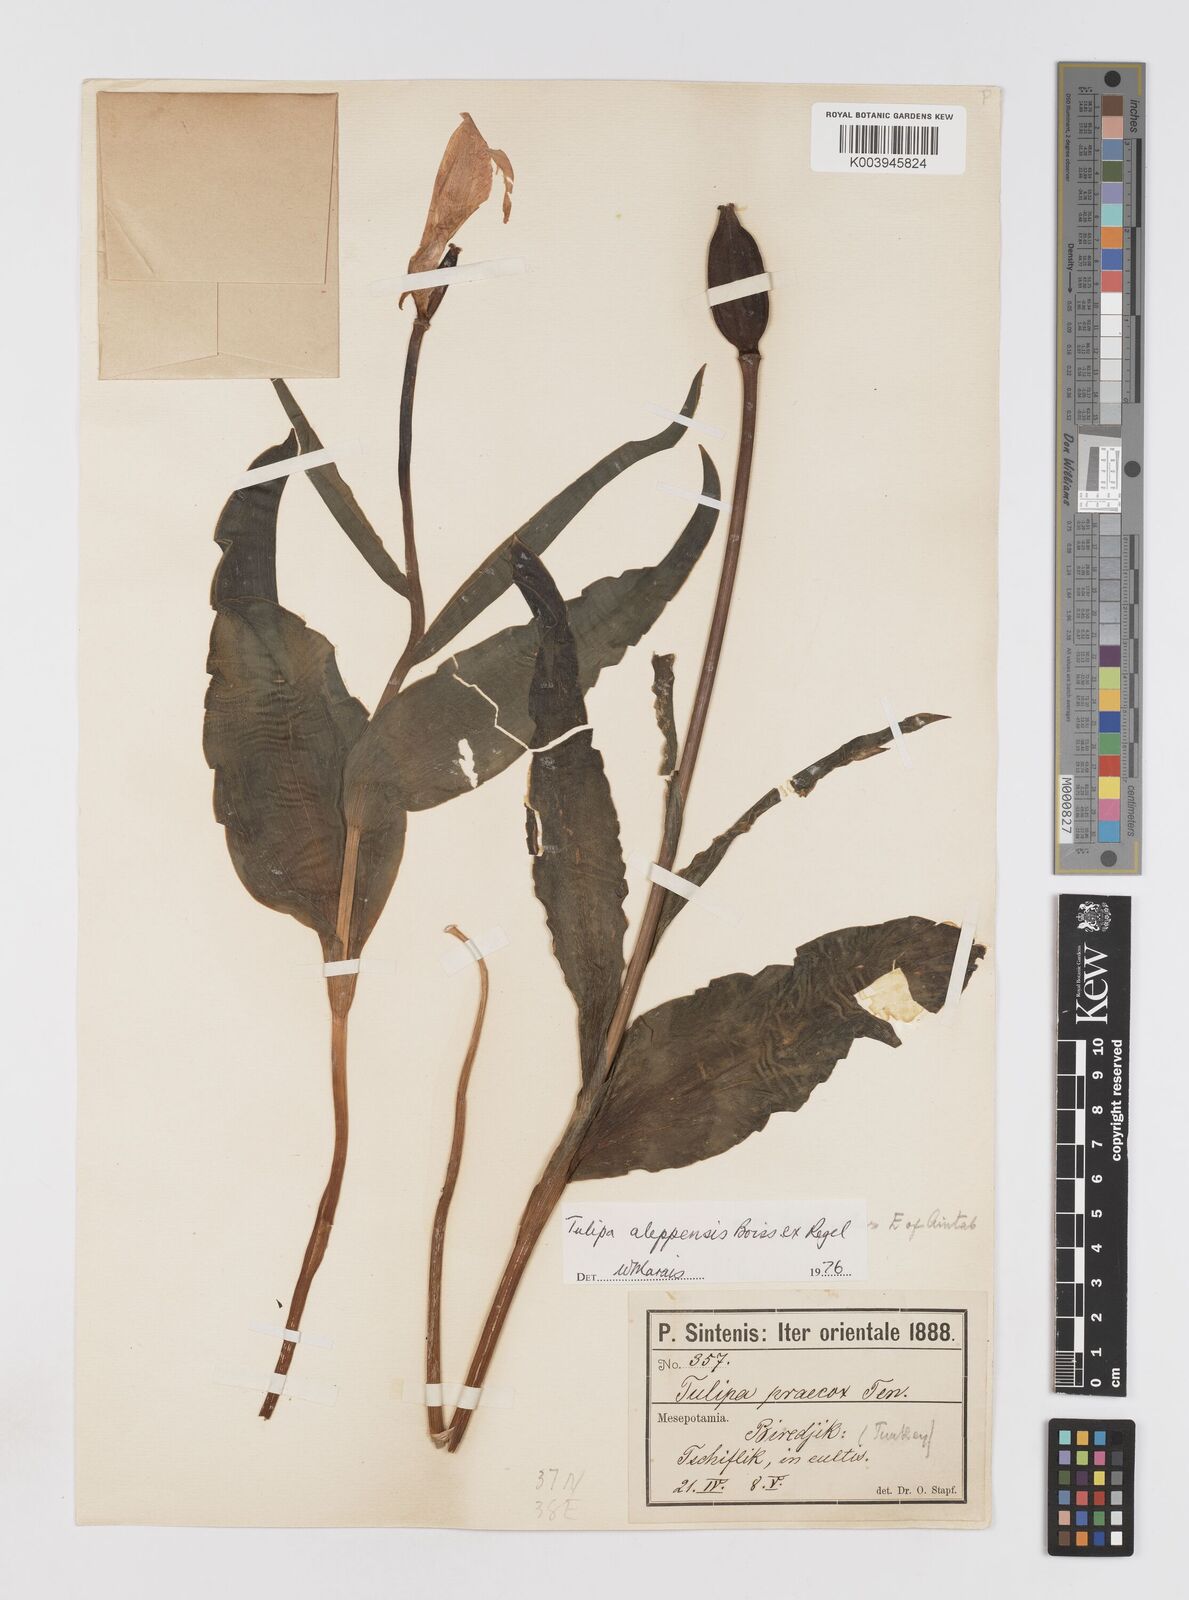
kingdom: Plantae
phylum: Tracheophyta
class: Liliopsida
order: Liliales
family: Liliaceae
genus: Tulipa
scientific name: Tulipa aleppensis
